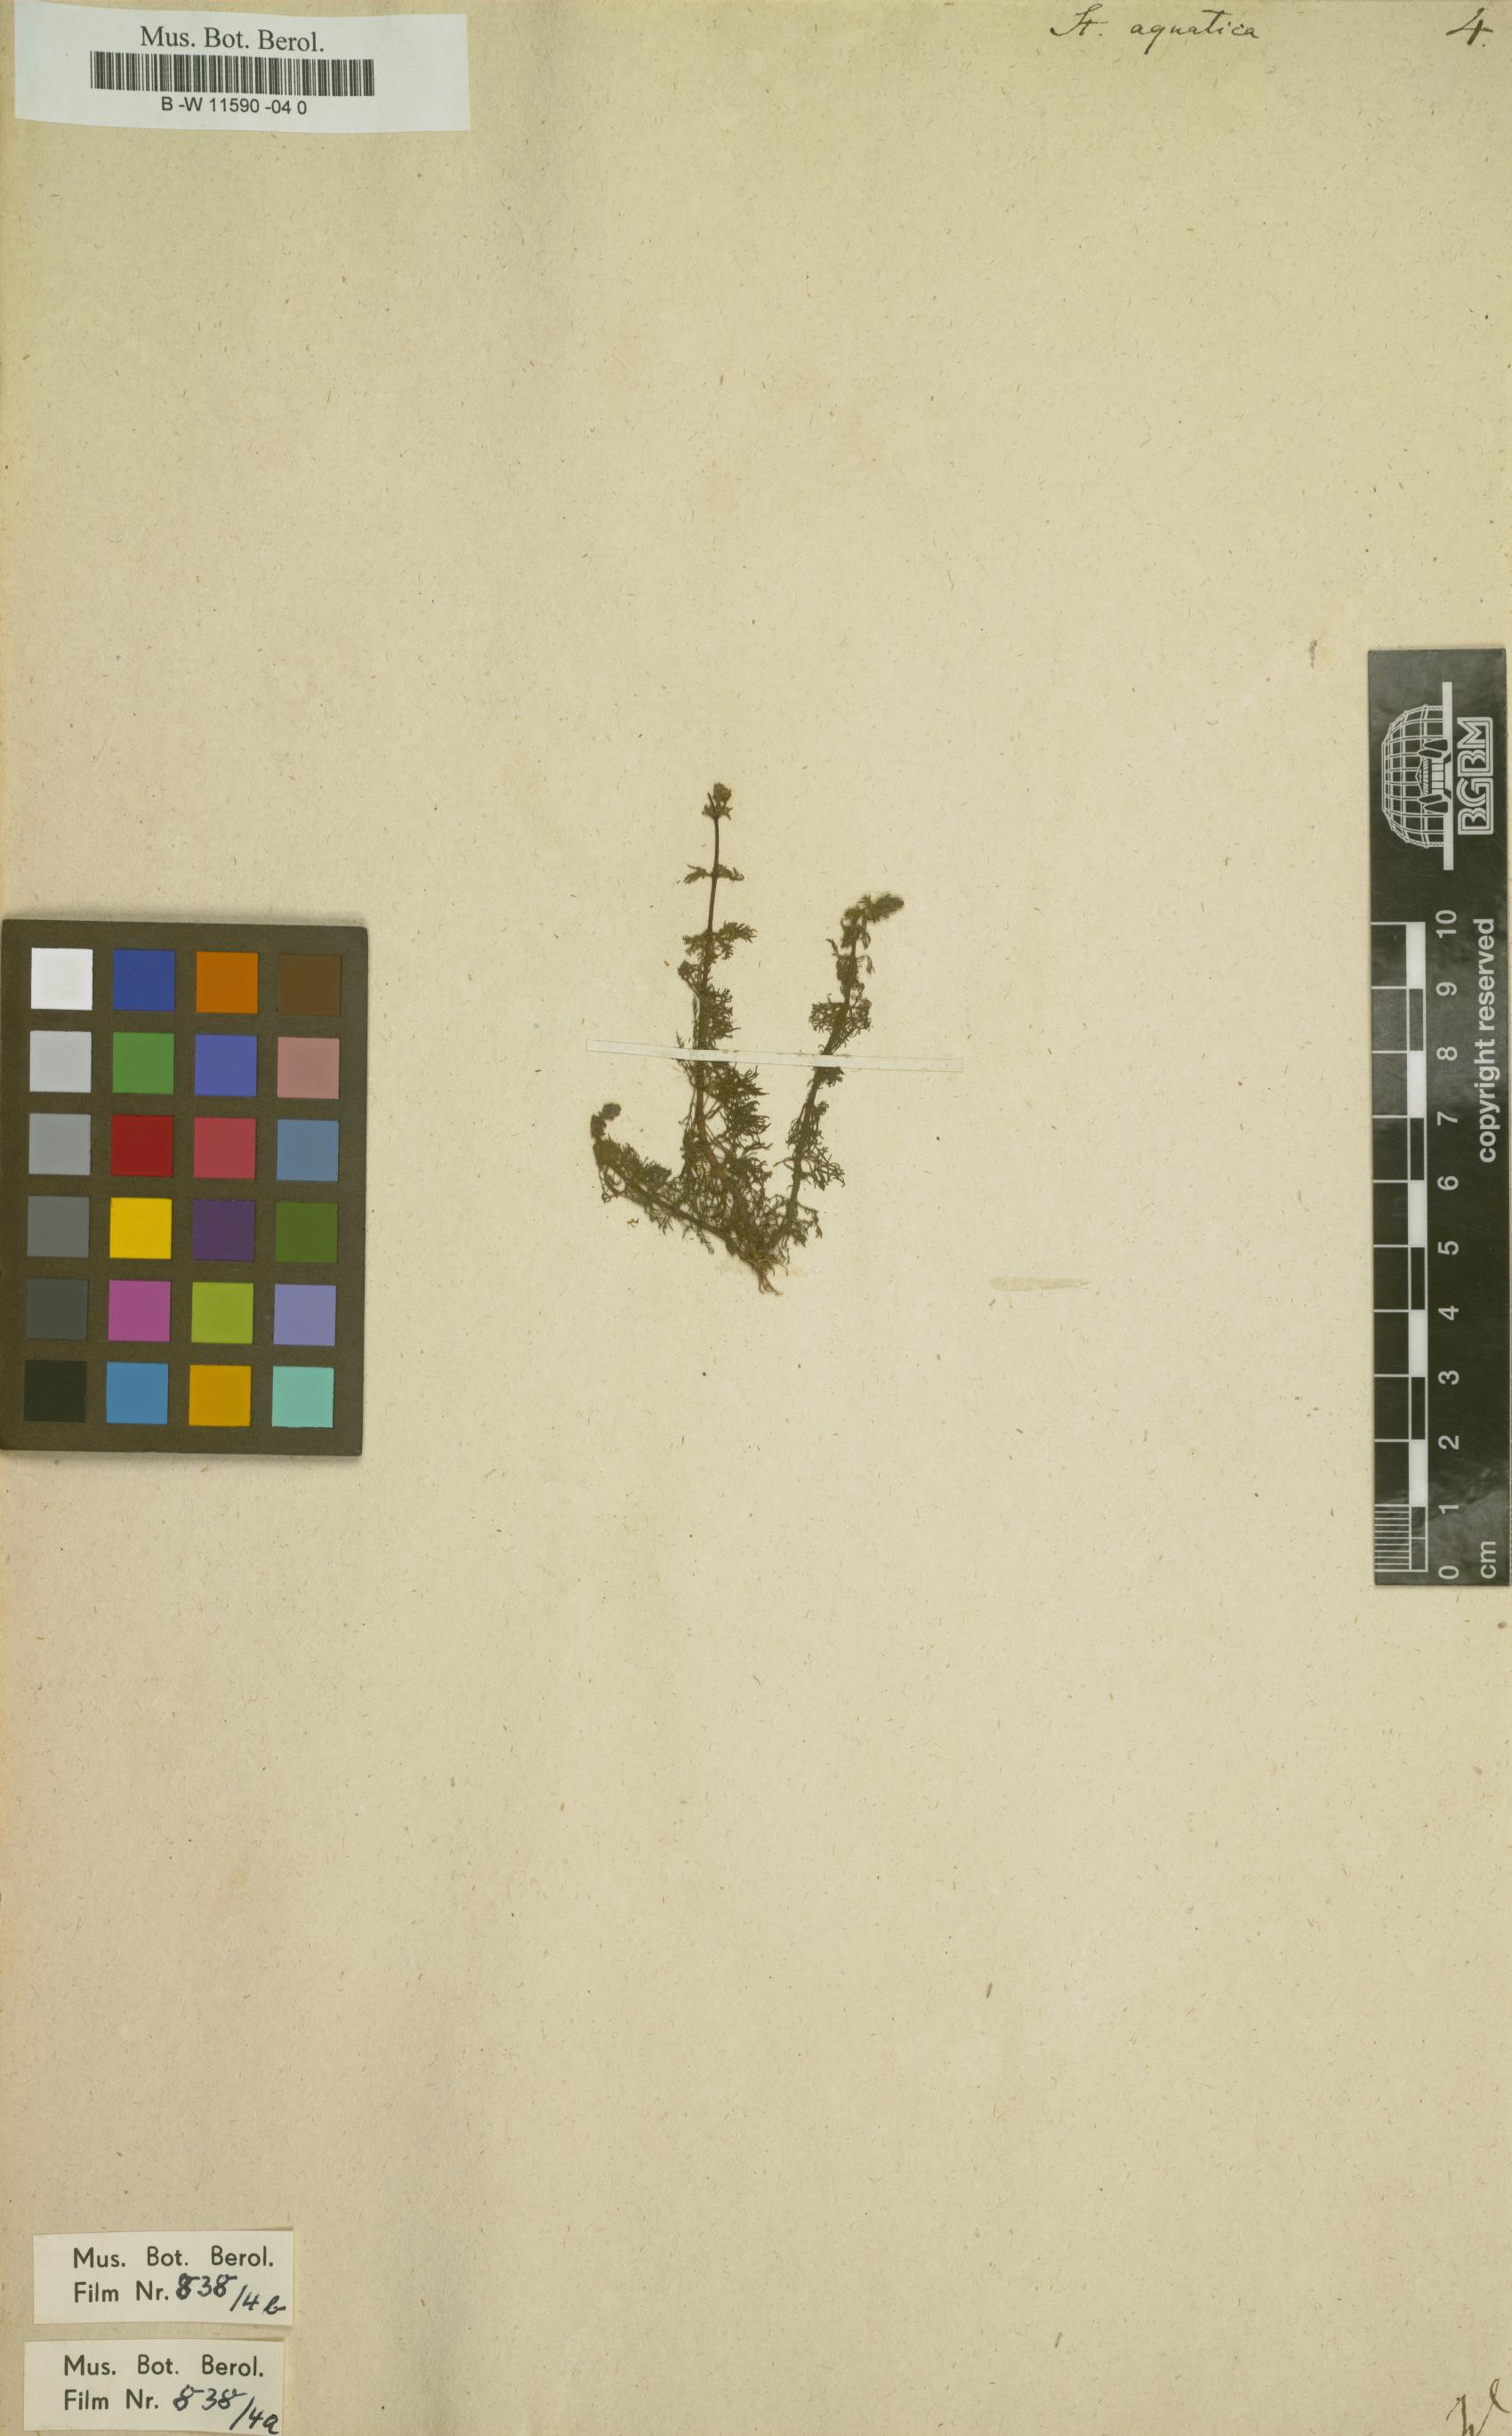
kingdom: Plantae
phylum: Tracheophyta
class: Magnoliopsida
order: Lamiales
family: Plantaginaceae
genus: Limnophila
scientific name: Limnophila polystachya
